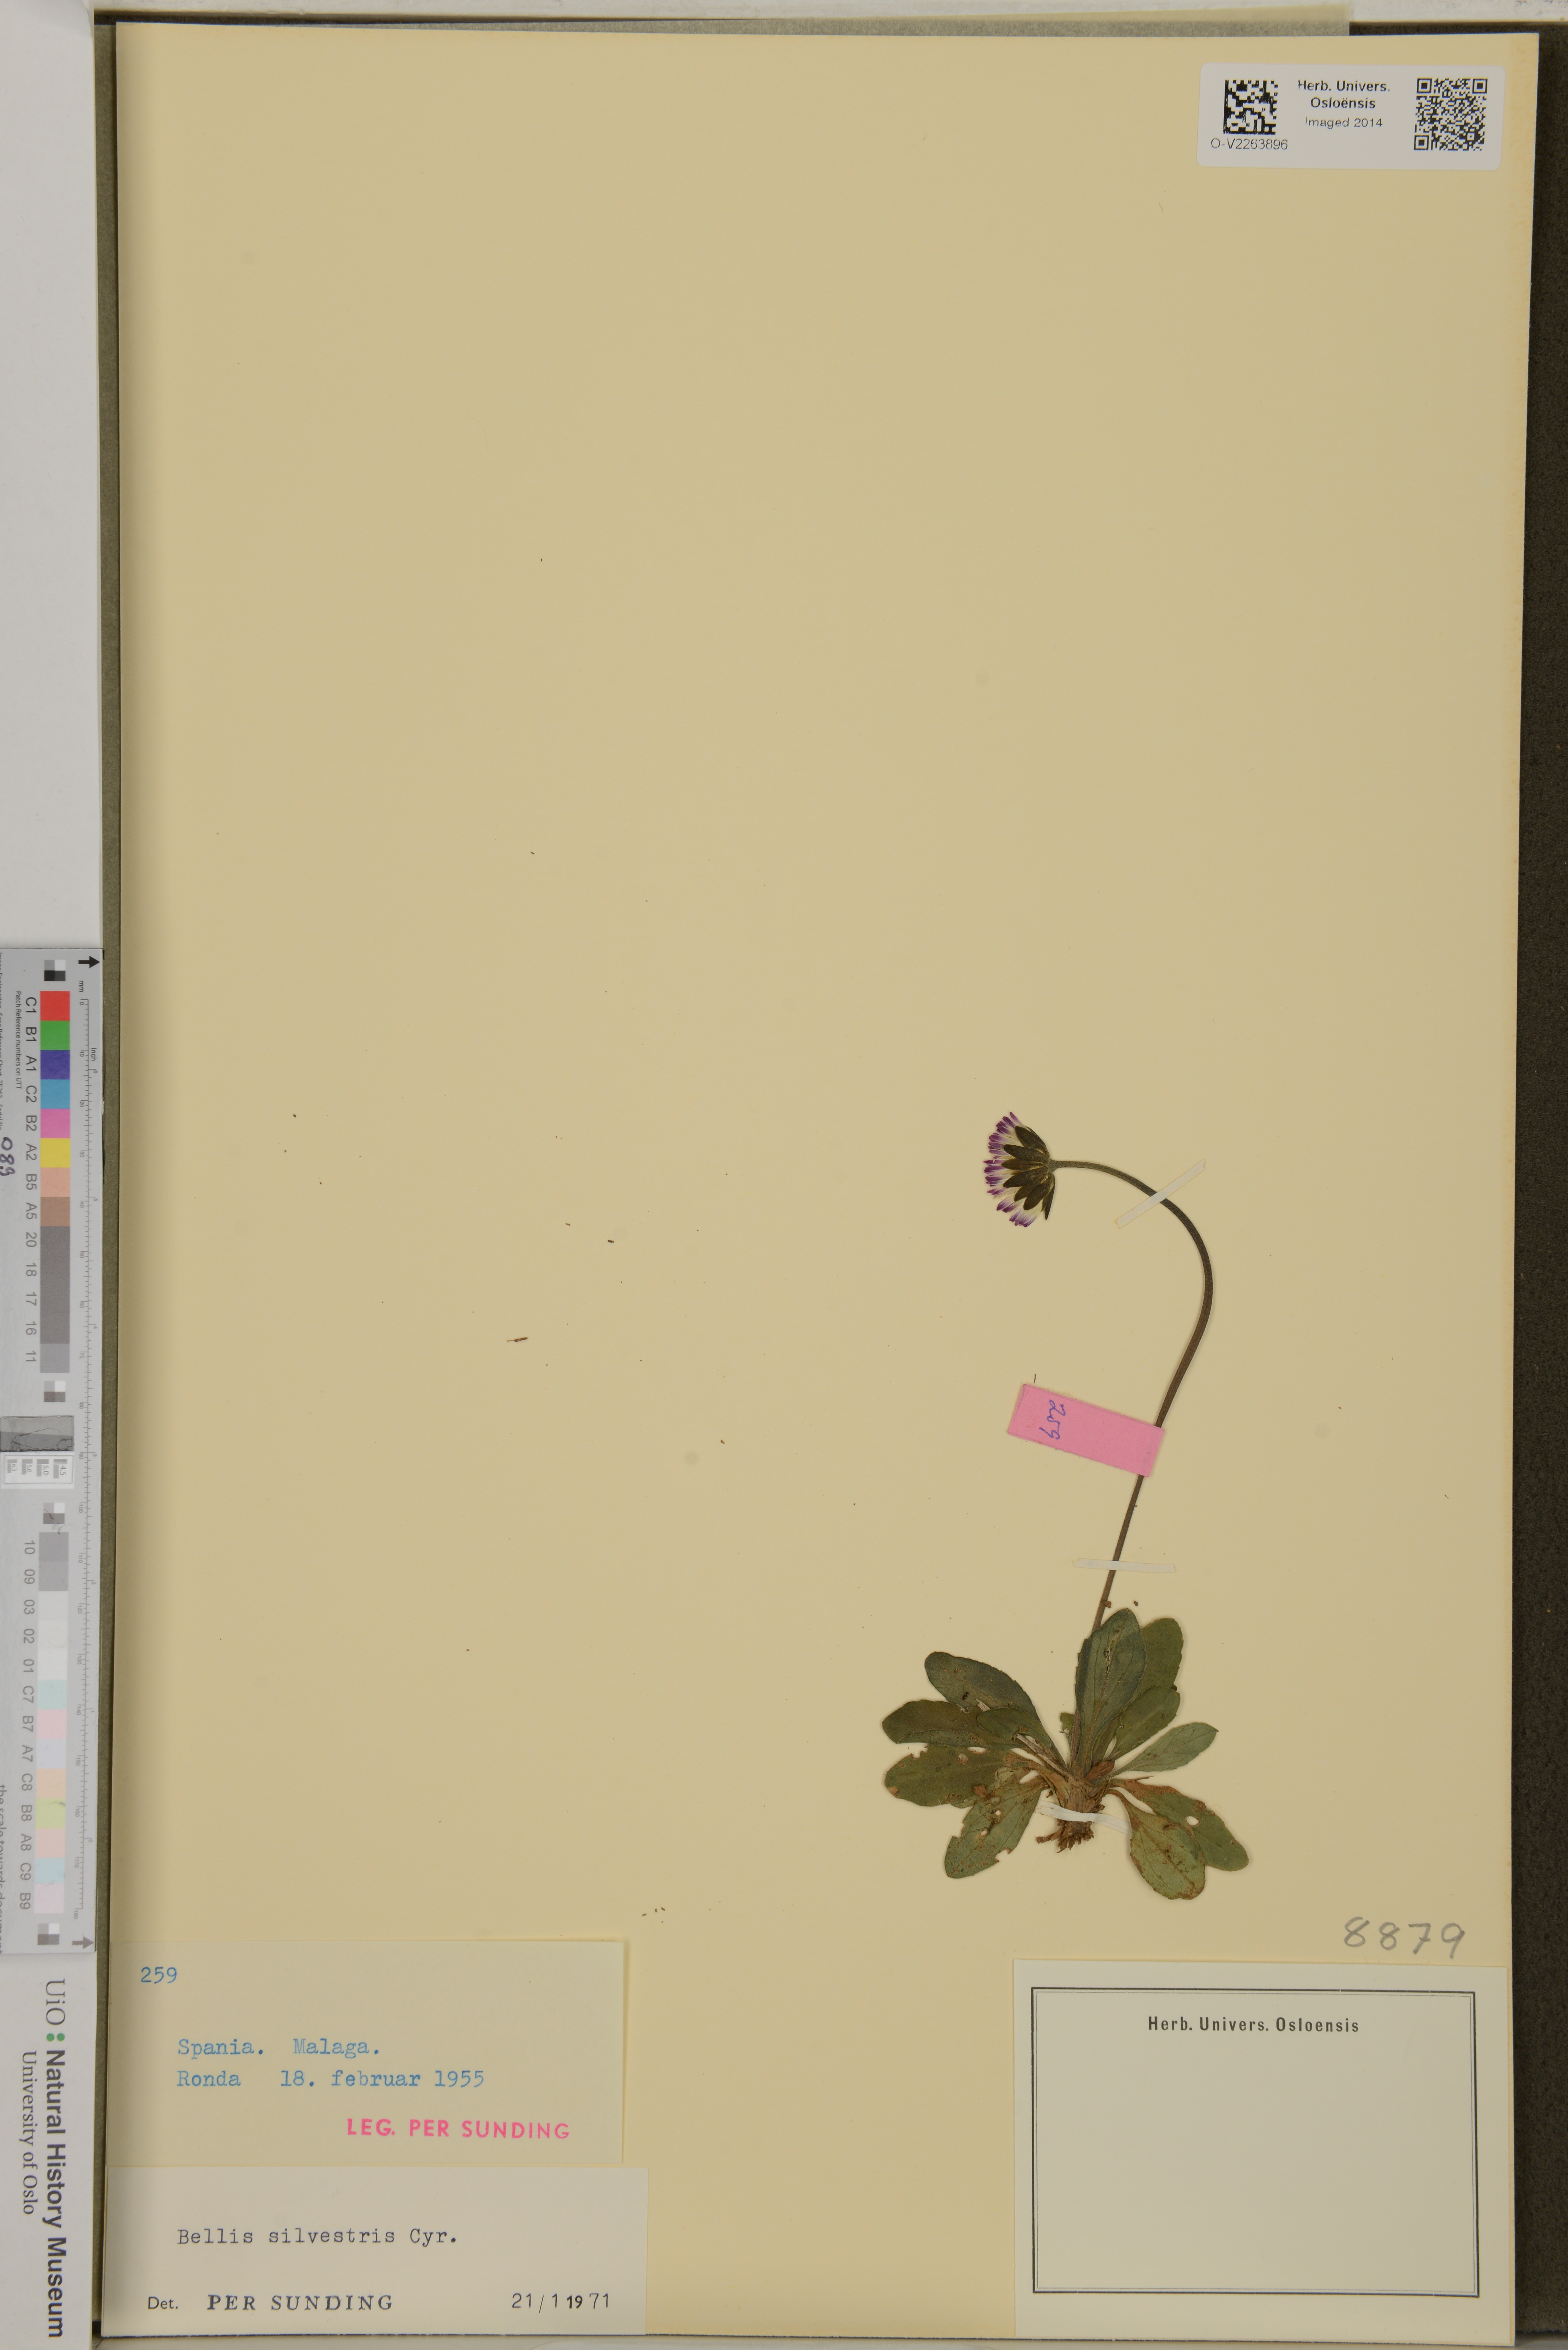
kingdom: Plantae
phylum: Tracheophyta
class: Magnoliopsida
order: Asterales
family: Asteraceae
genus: Bellis
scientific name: Bellis sylvestris
